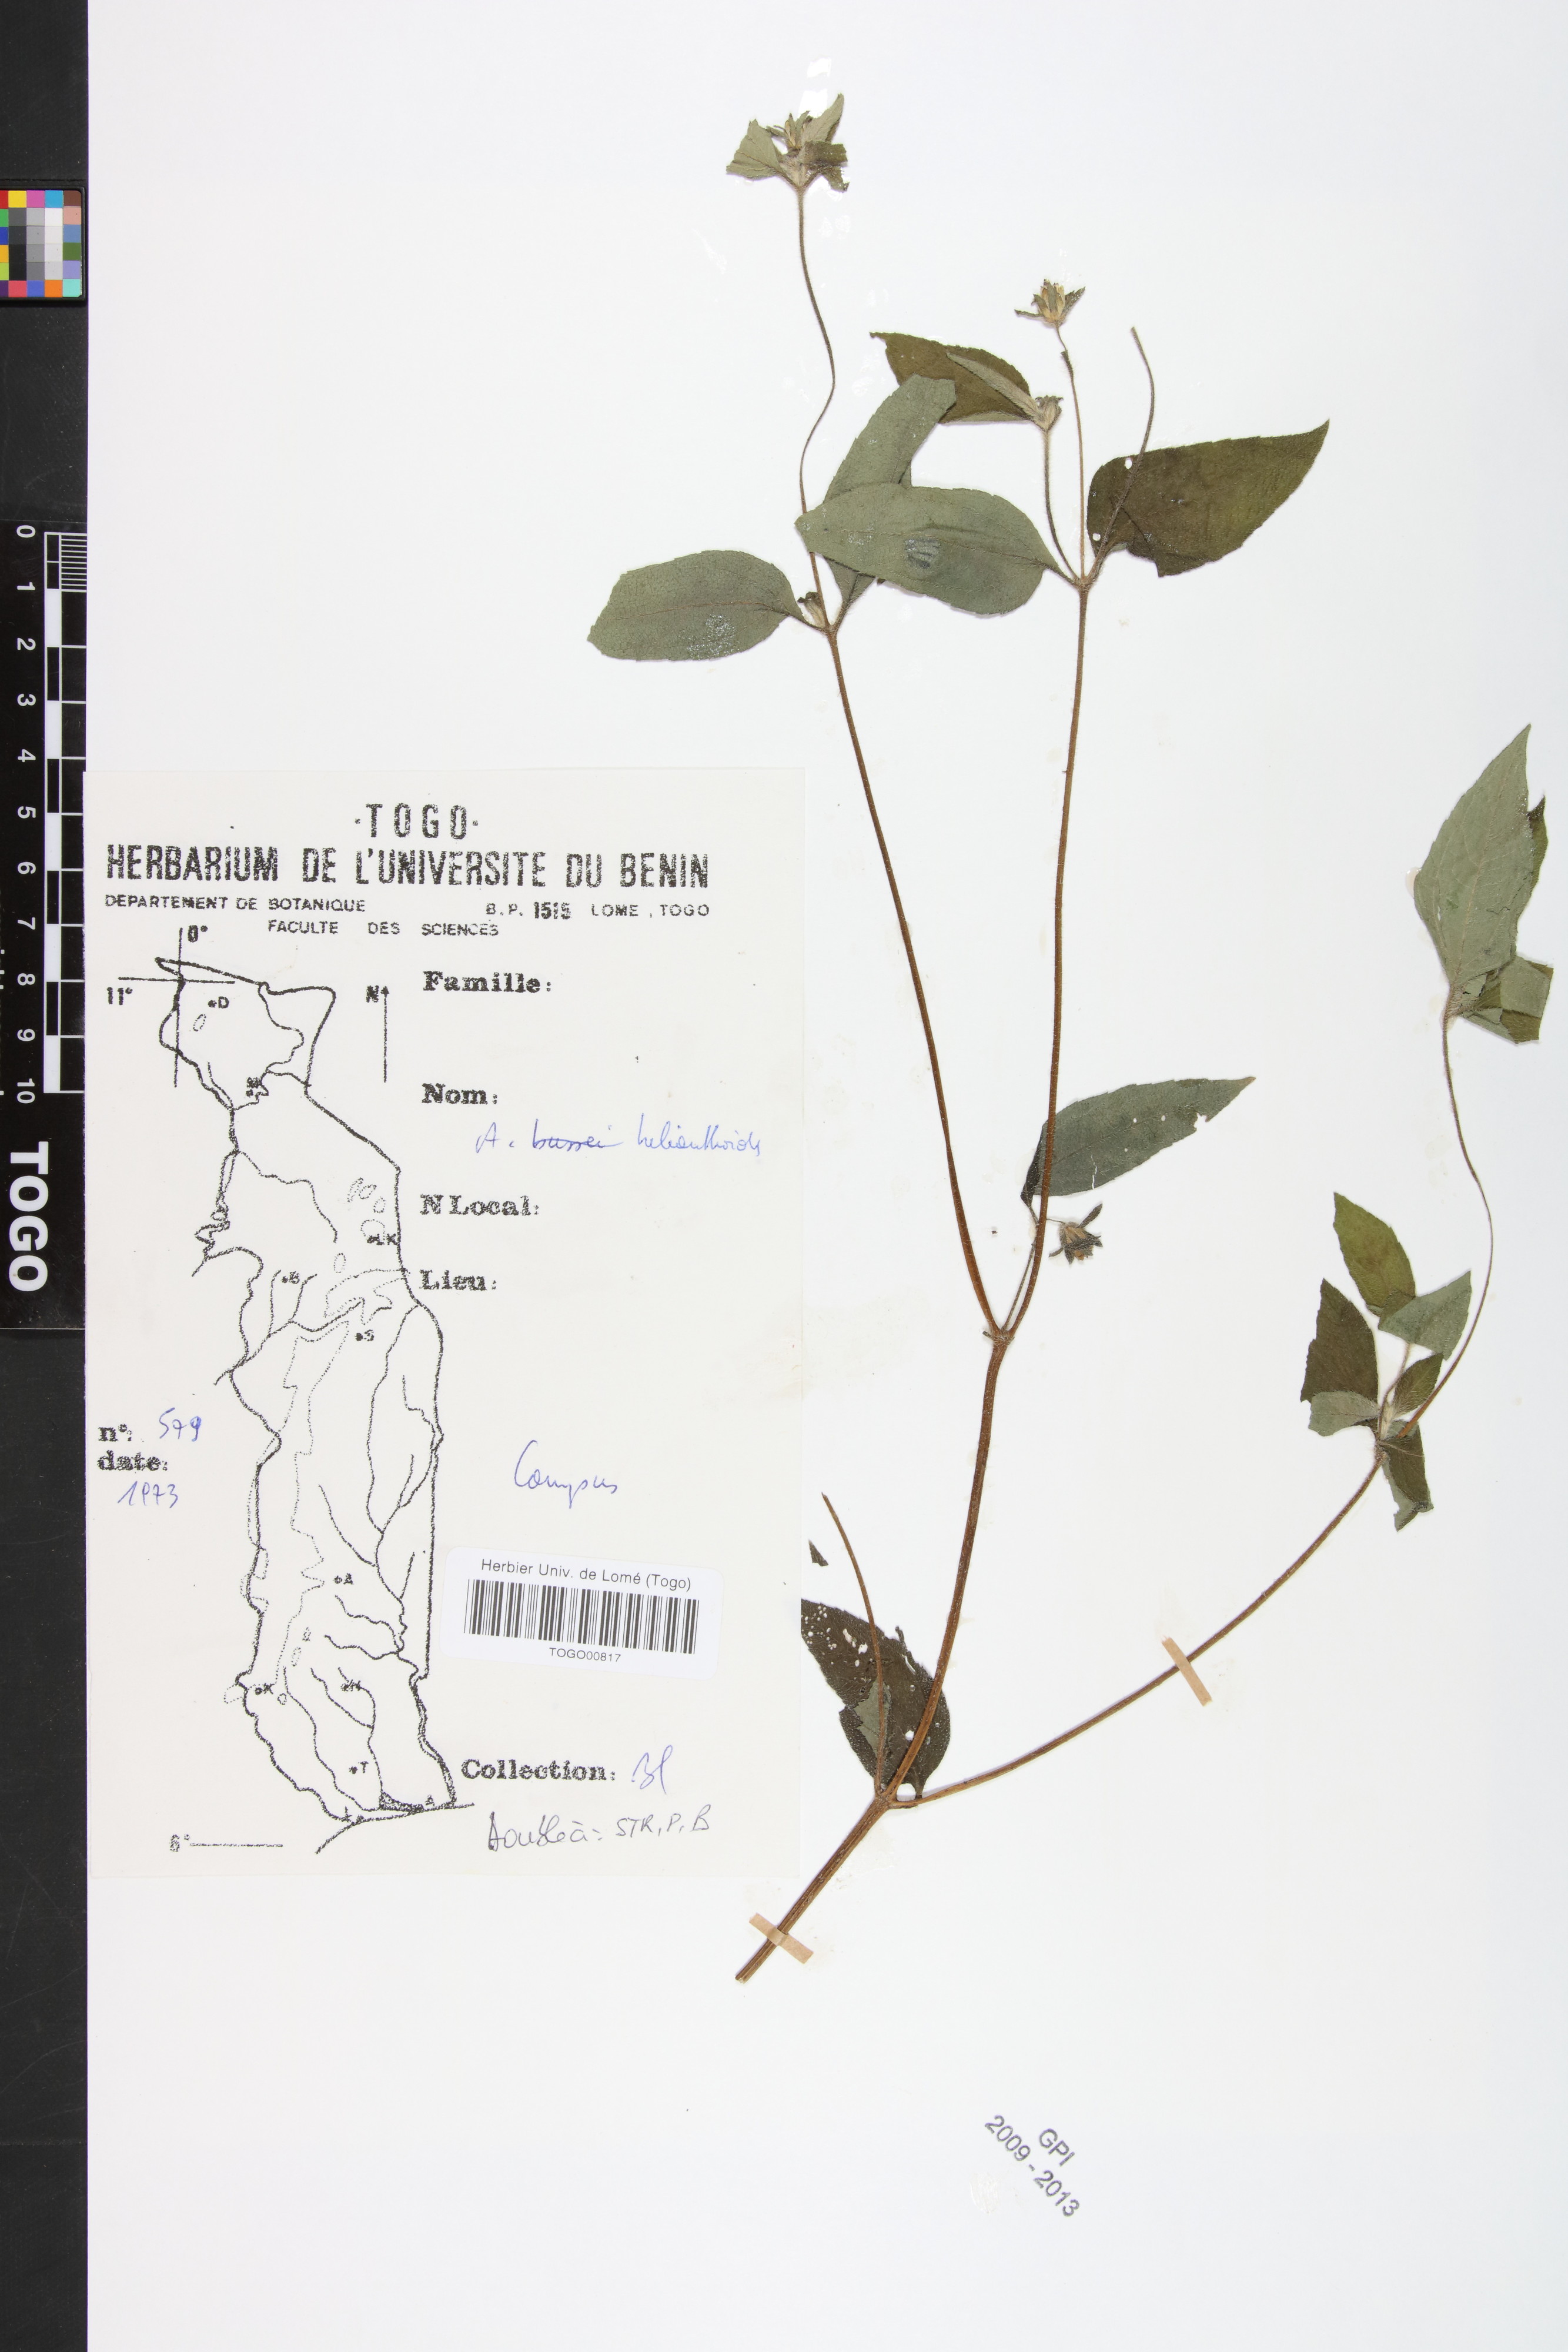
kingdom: Plantae
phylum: Tracheophyta
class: Magnoliopsida
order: Asterales
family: Asteraceae
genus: Aspilia
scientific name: Aspilia helianthoides
